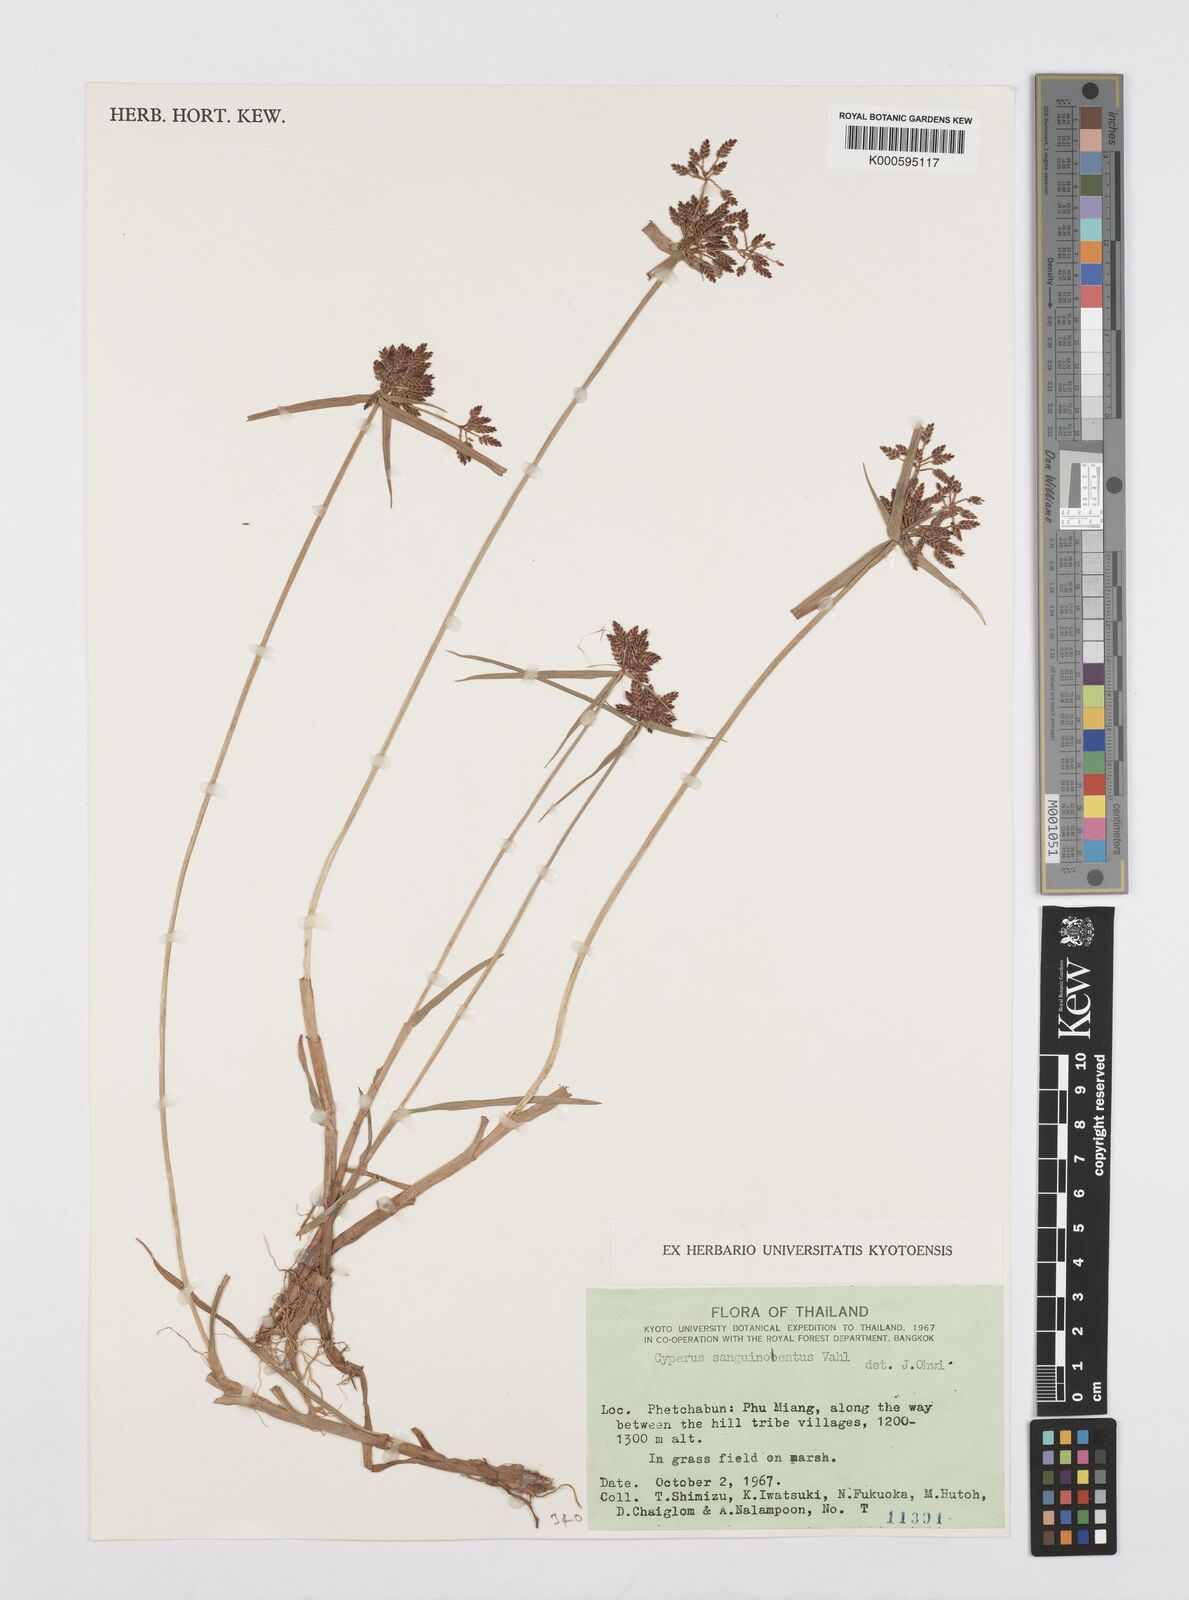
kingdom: Plantae
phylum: Tracheophyta
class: Liliopsida
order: Poales
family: Cyperaceae
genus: Cyperus
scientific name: Cyperus sanguinolentus
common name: Purpleglume flatsedge
